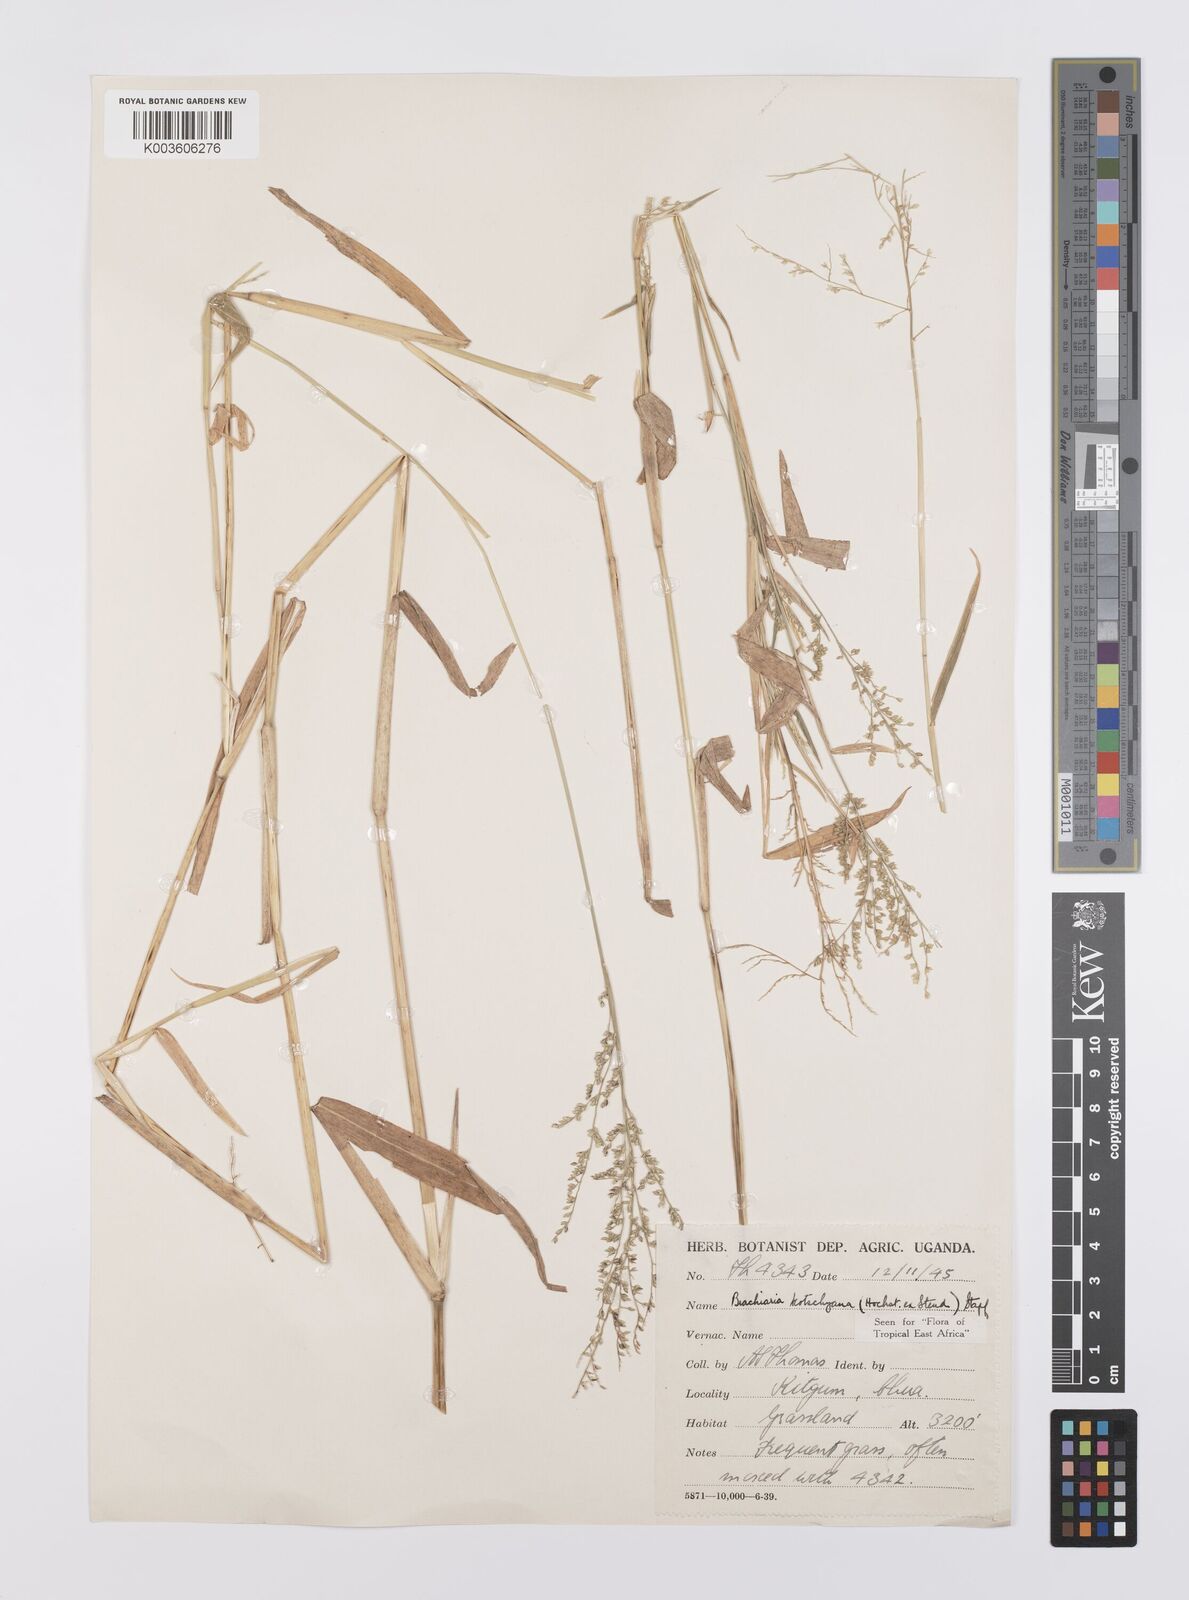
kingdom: Plantae
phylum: Tracheophyta
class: Liliopsida
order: Poales
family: Poaceae
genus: Urochloa
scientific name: Urochloa comata
